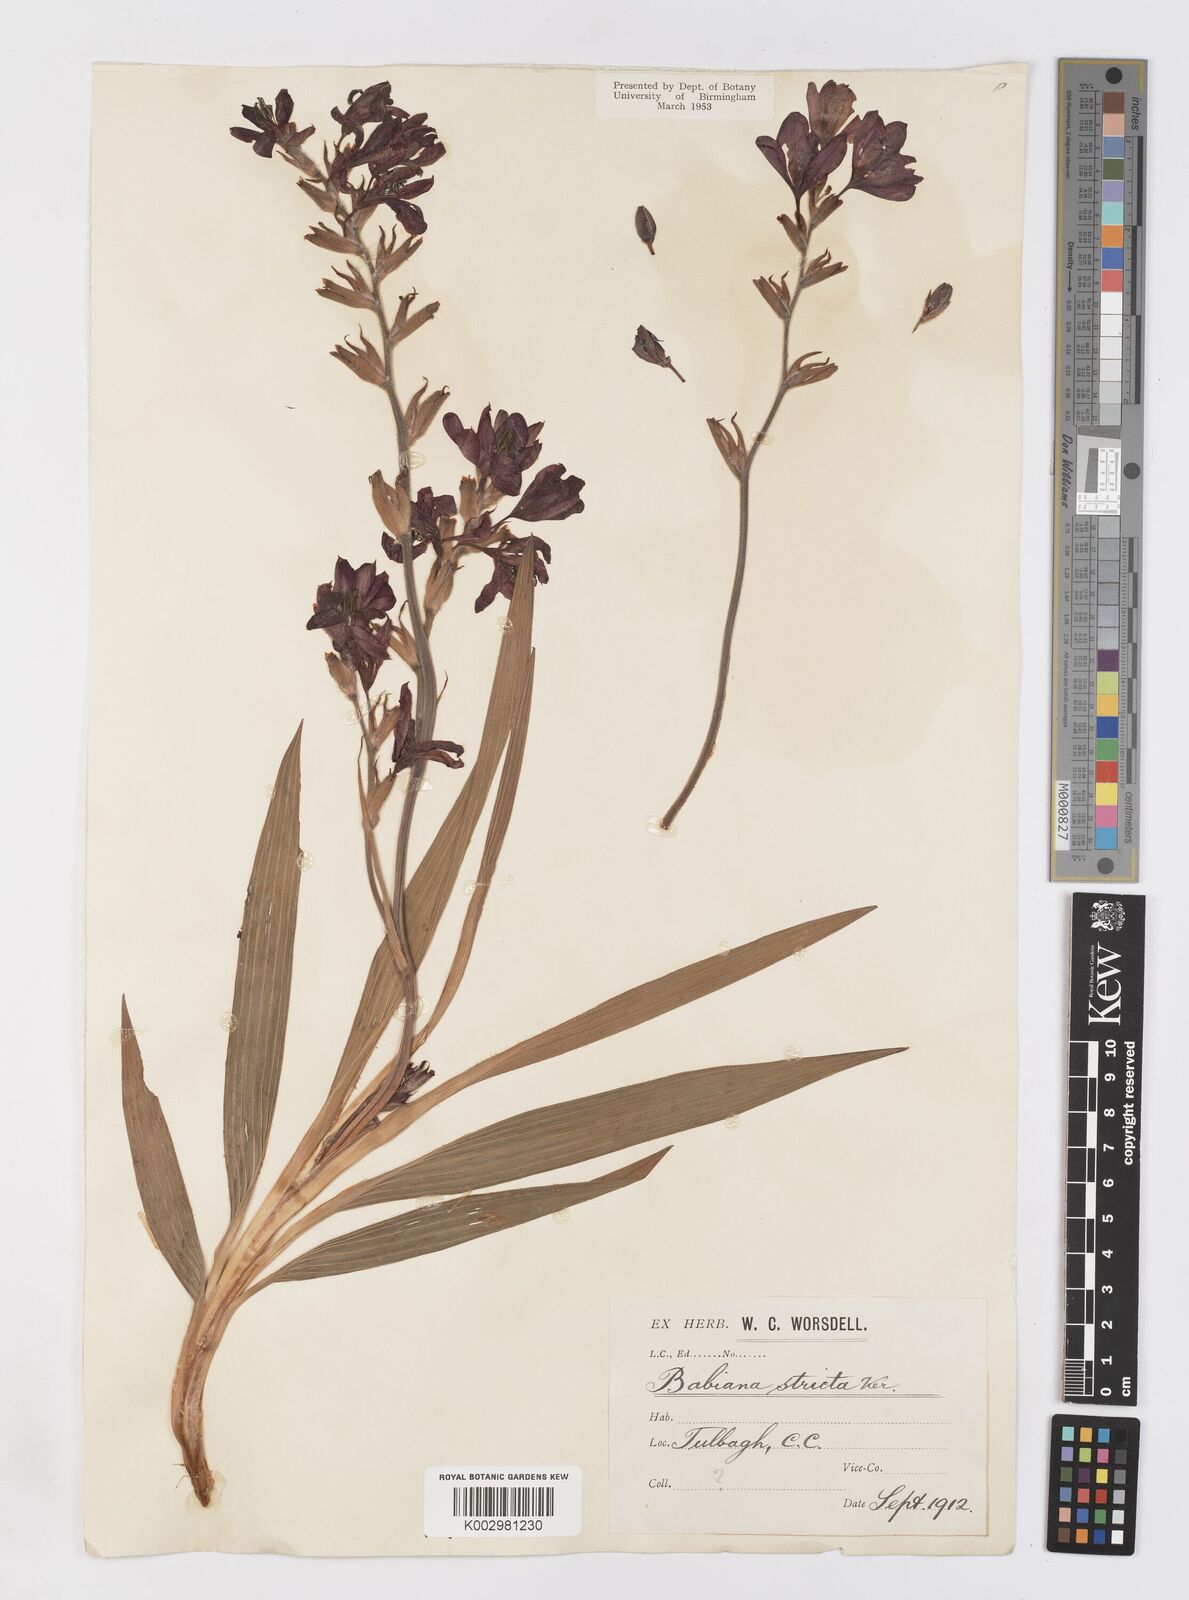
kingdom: Plantae
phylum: Tracheophyta
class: Liliopsida
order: Asparagales
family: Iridaceae
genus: Babiana
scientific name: Babiana regia
